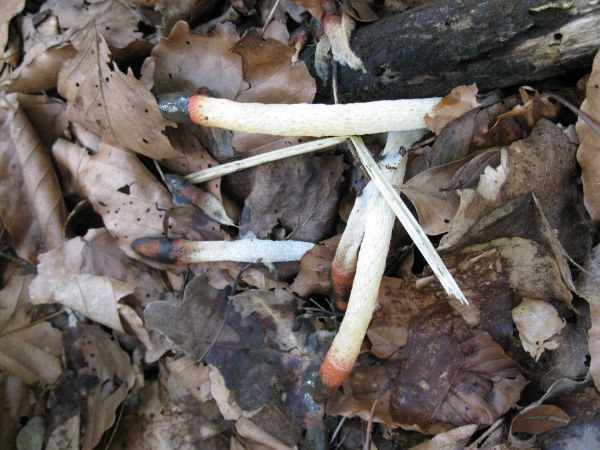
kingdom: Fungi
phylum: Basidiomycota
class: Agaricomycetes
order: Phallales
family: Phallaceae
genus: Mutinus
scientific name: Mutinus caninus
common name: hunde-stinksvamp
